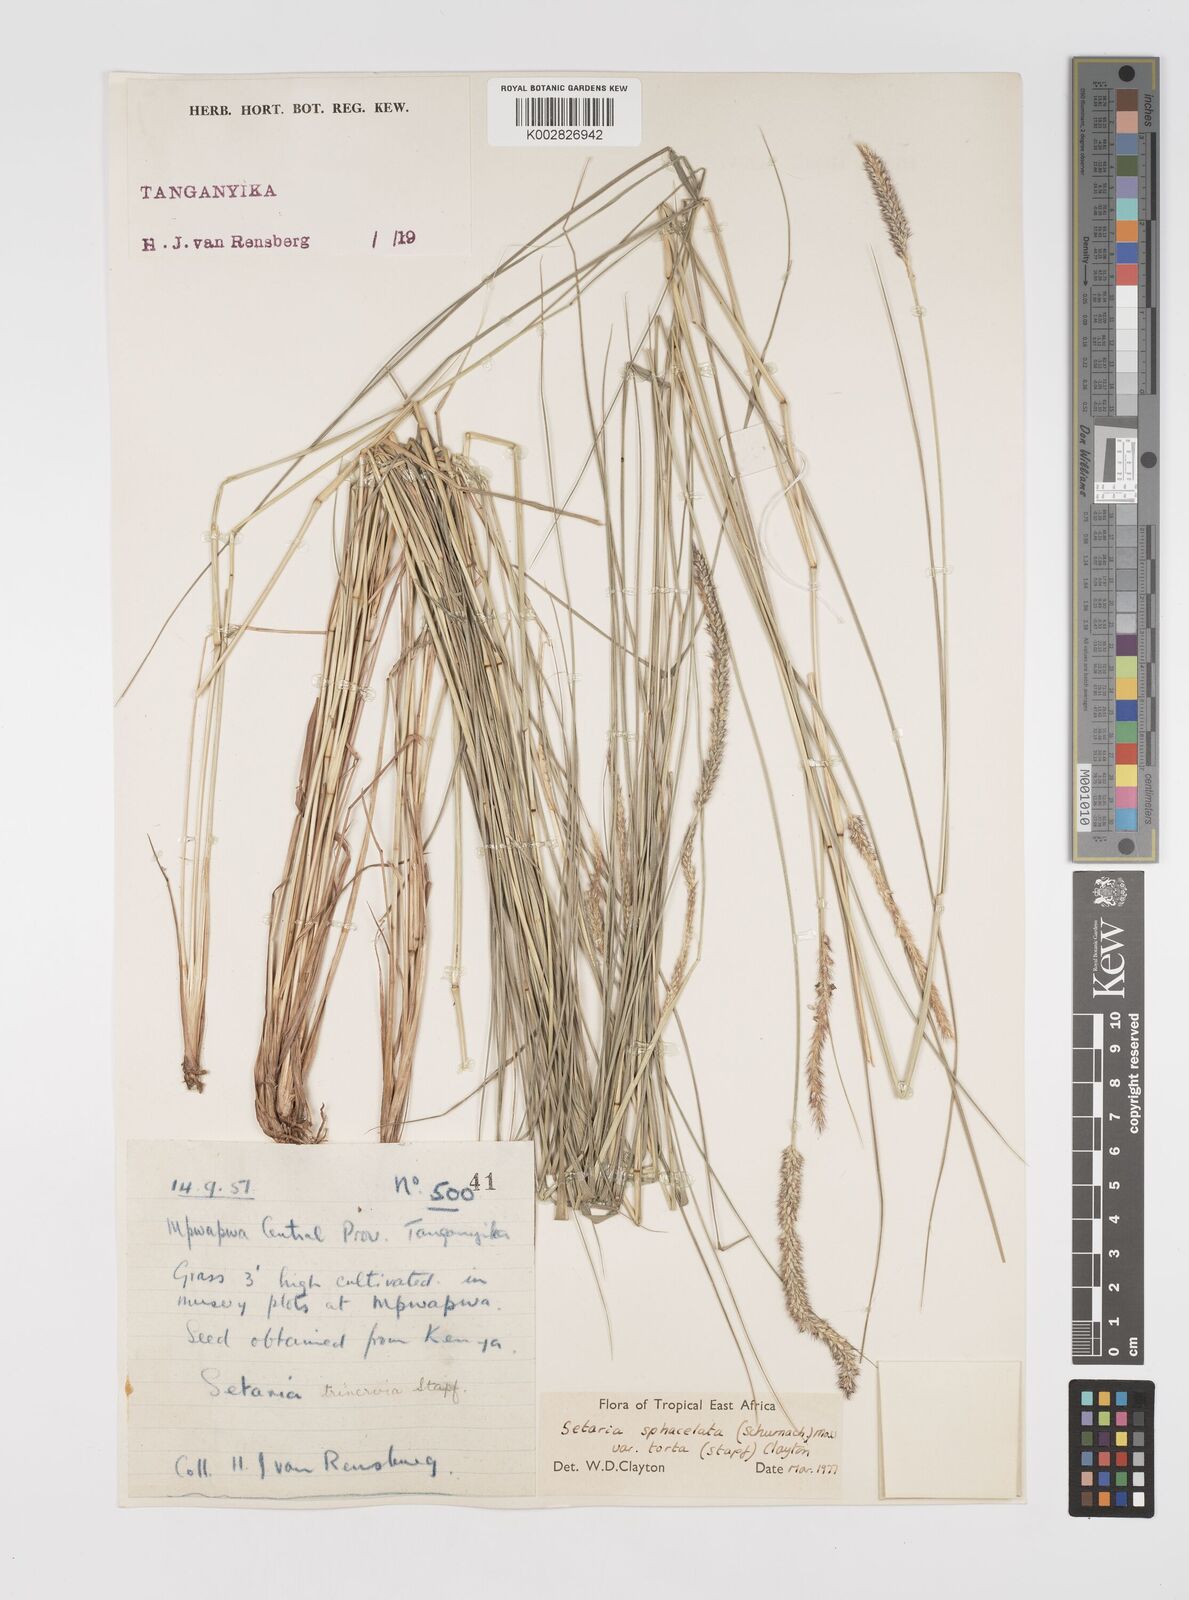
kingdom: Plantae
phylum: Tracheophyta
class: Liliopsida
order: Poales
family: Poaceae
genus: Setaria
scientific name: Setaria sphacelata
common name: African bristlegrass
